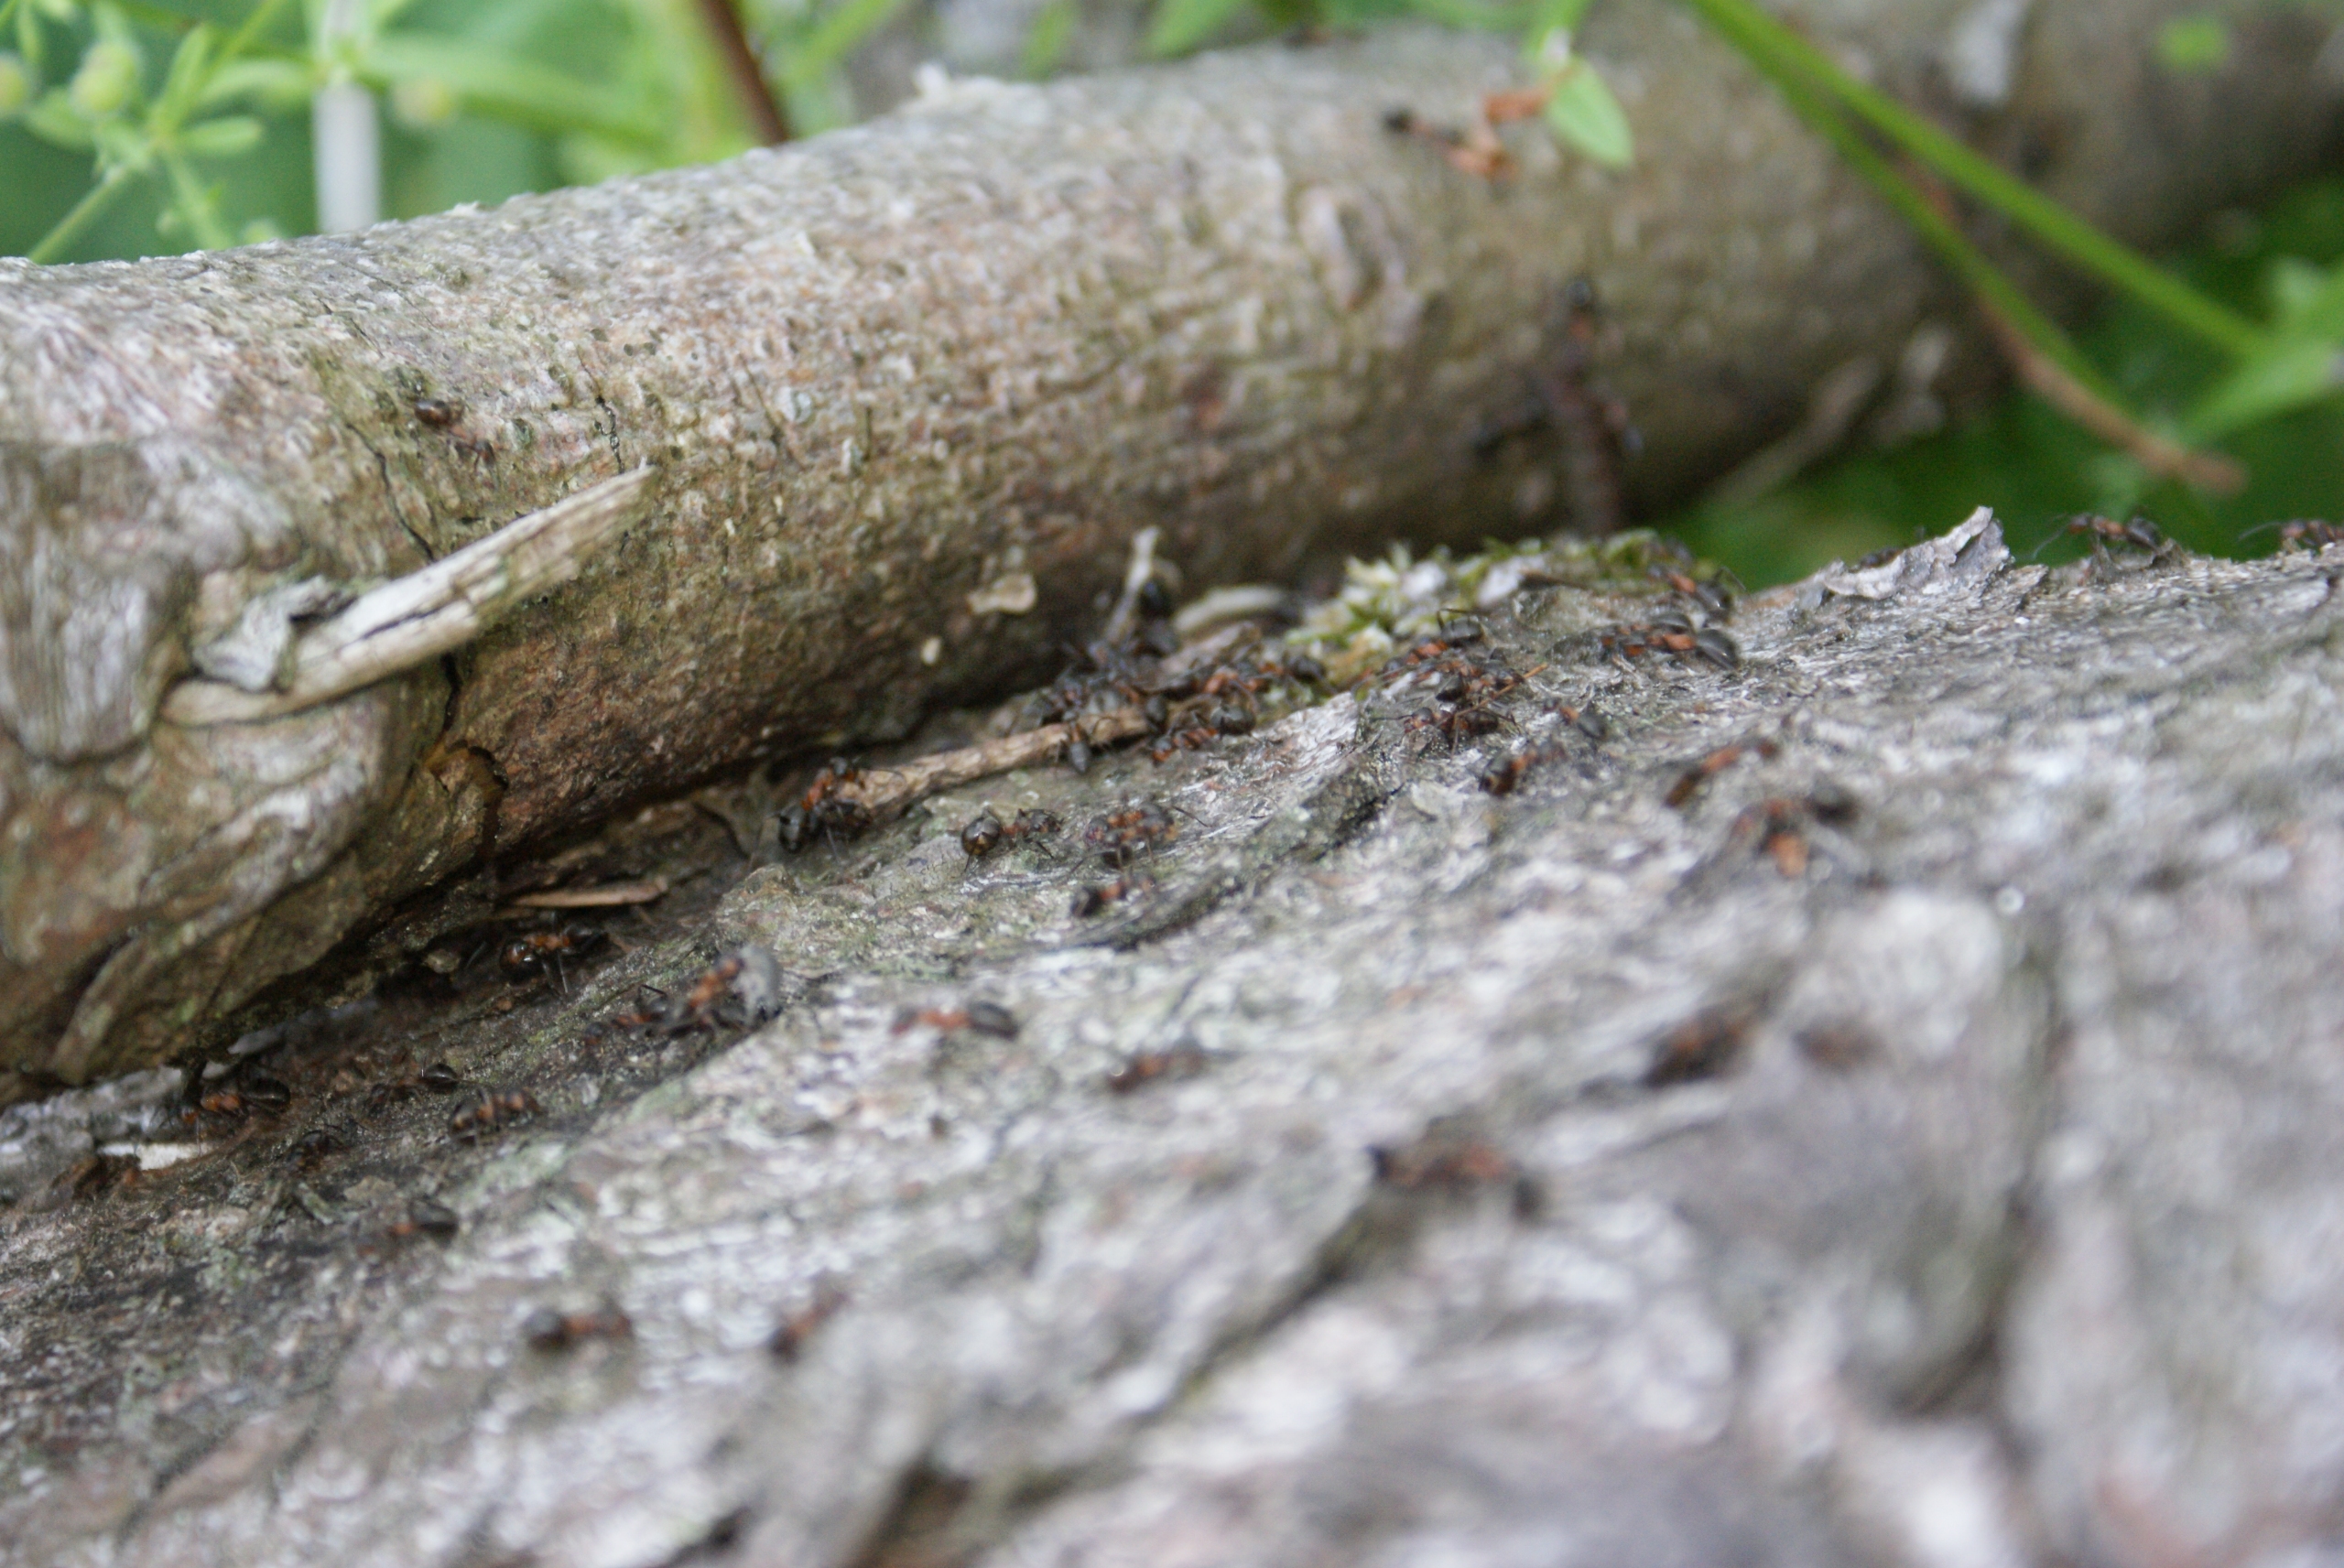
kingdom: Animalia
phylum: Arthropoda
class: Insecta
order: Hymenoptera
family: Formicidae
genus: Formica
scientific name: Formica
